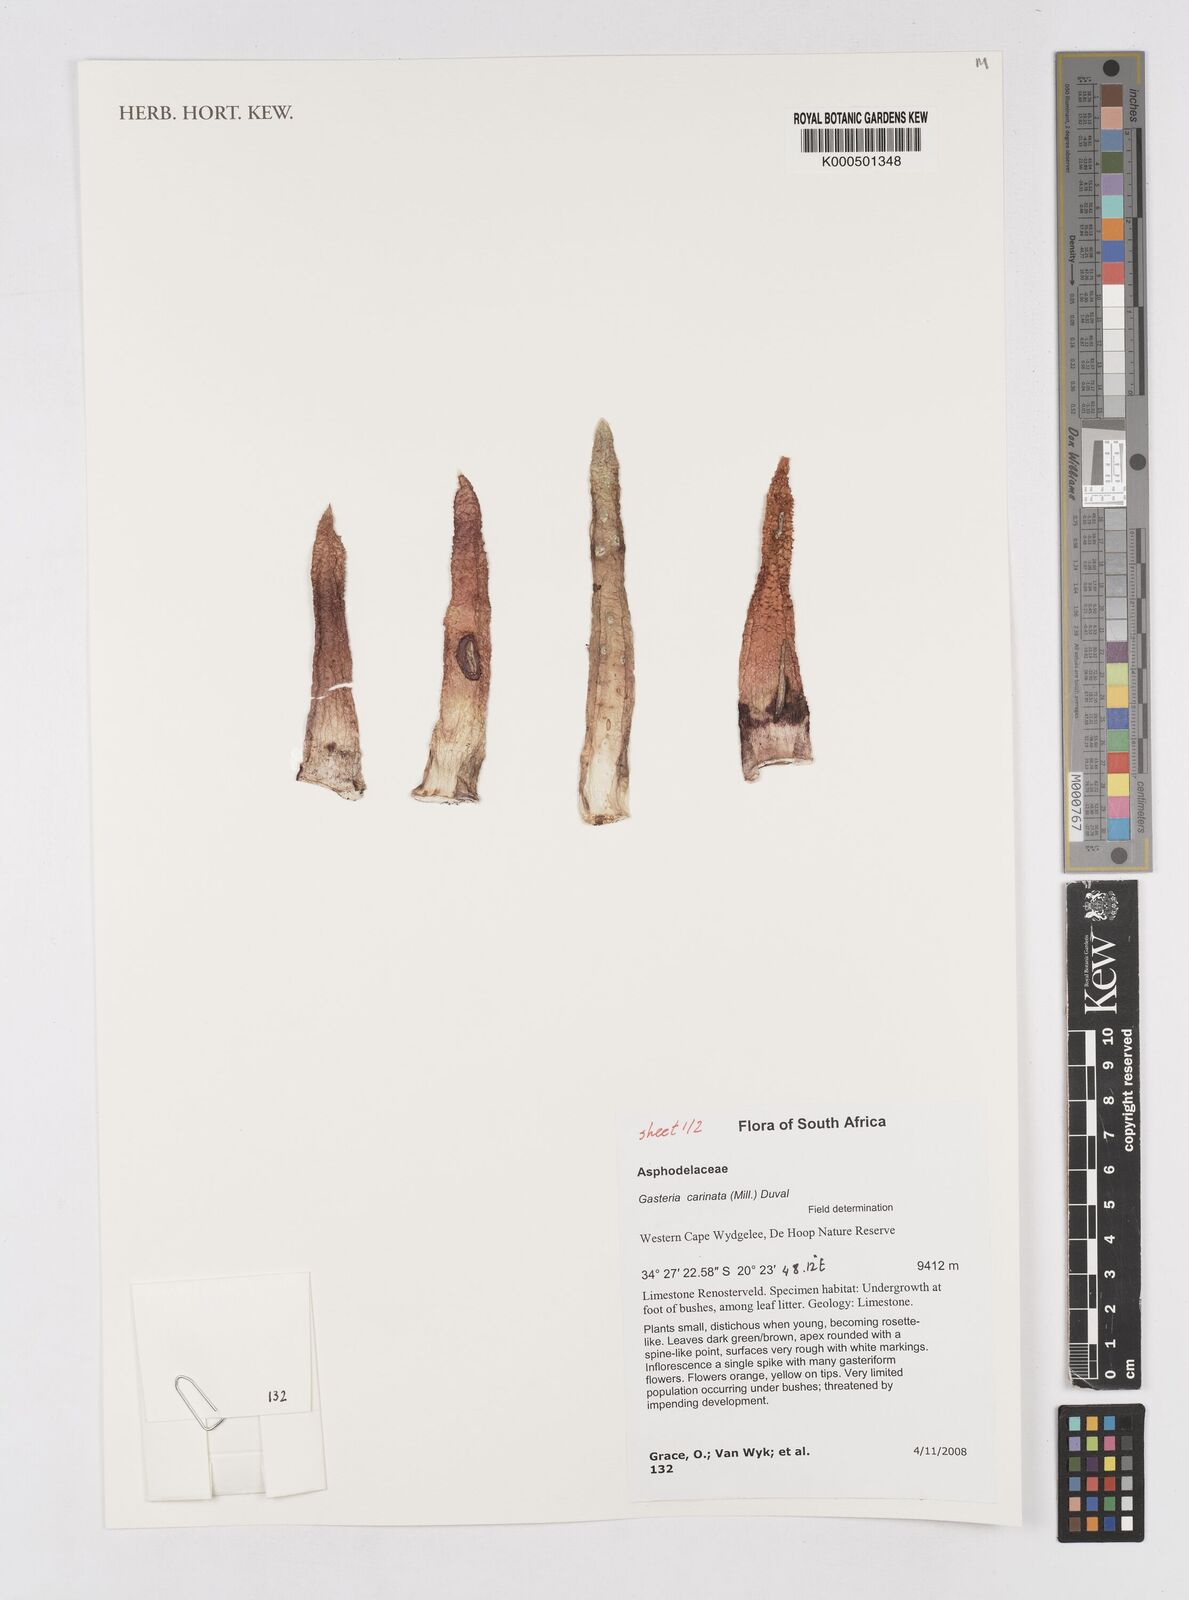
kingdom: Plantae
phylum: Tracheophyta
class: Liliopsida
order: Asparagales
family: Asphodelaceae
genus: Gasteria
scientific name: Gasteria carinata
